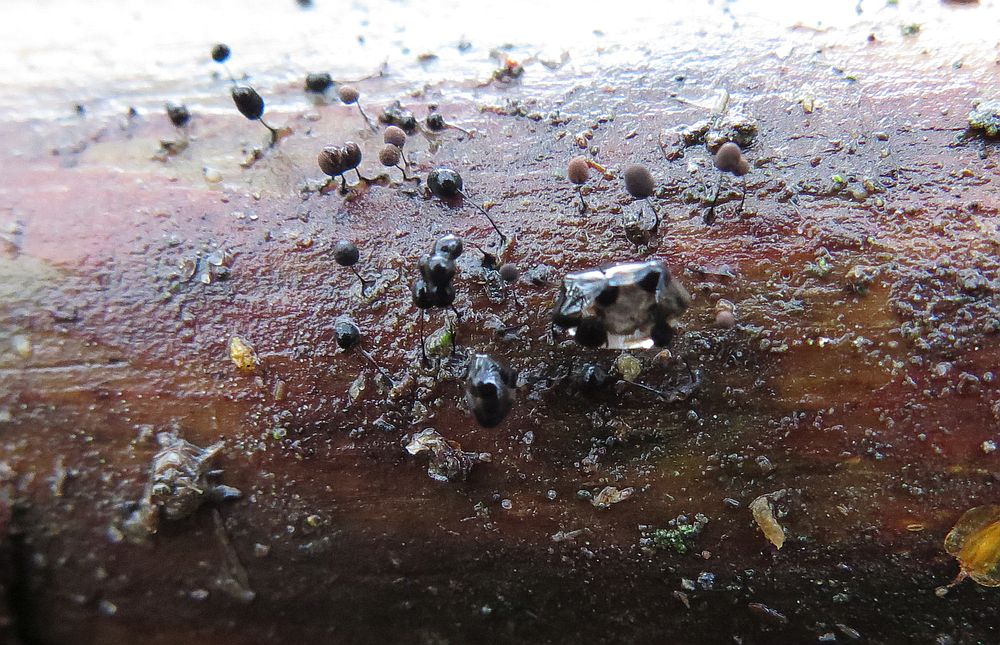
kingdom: Protozoa
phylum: Mycetozoa
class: Myxomycetes
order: Stemonitidales
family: Stemonitidaceae
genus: Comatricha
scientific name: Comatricha nigra
